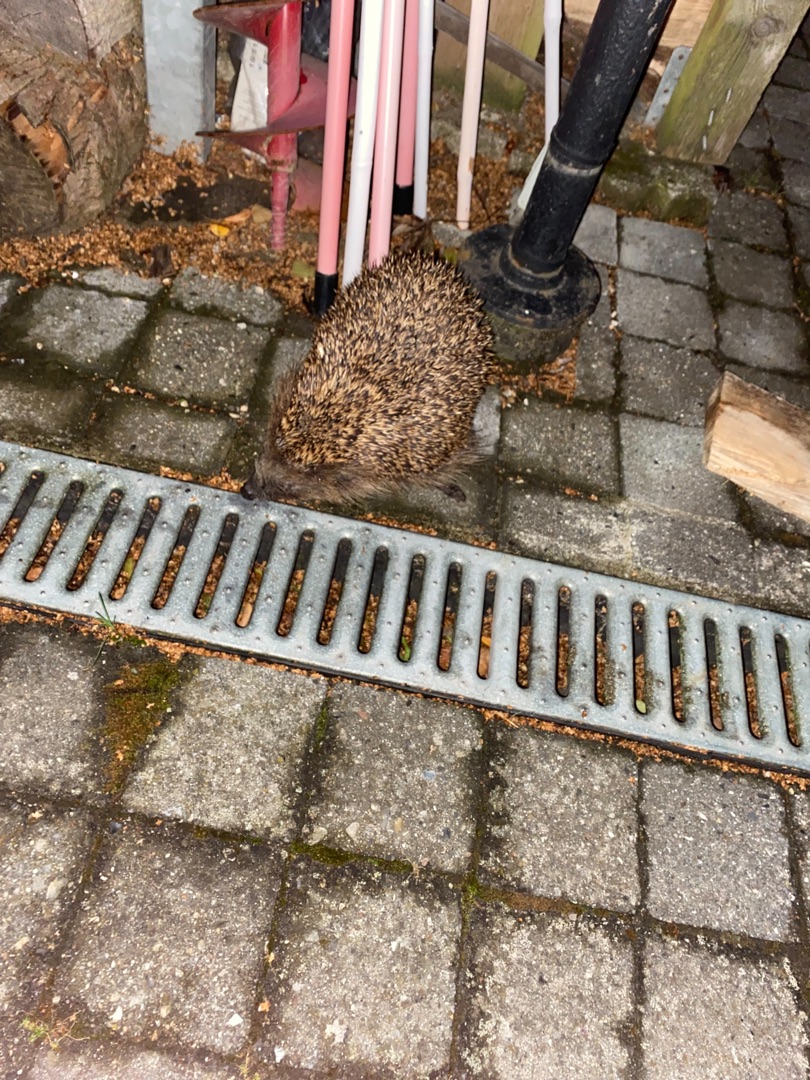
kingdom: Animalia
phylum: Chordata
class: Mammalia
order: Erinaceomorpha
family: Erinaceidae
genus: Erinaceus
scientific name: Erinaceus europaeus
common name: Pindsvin
